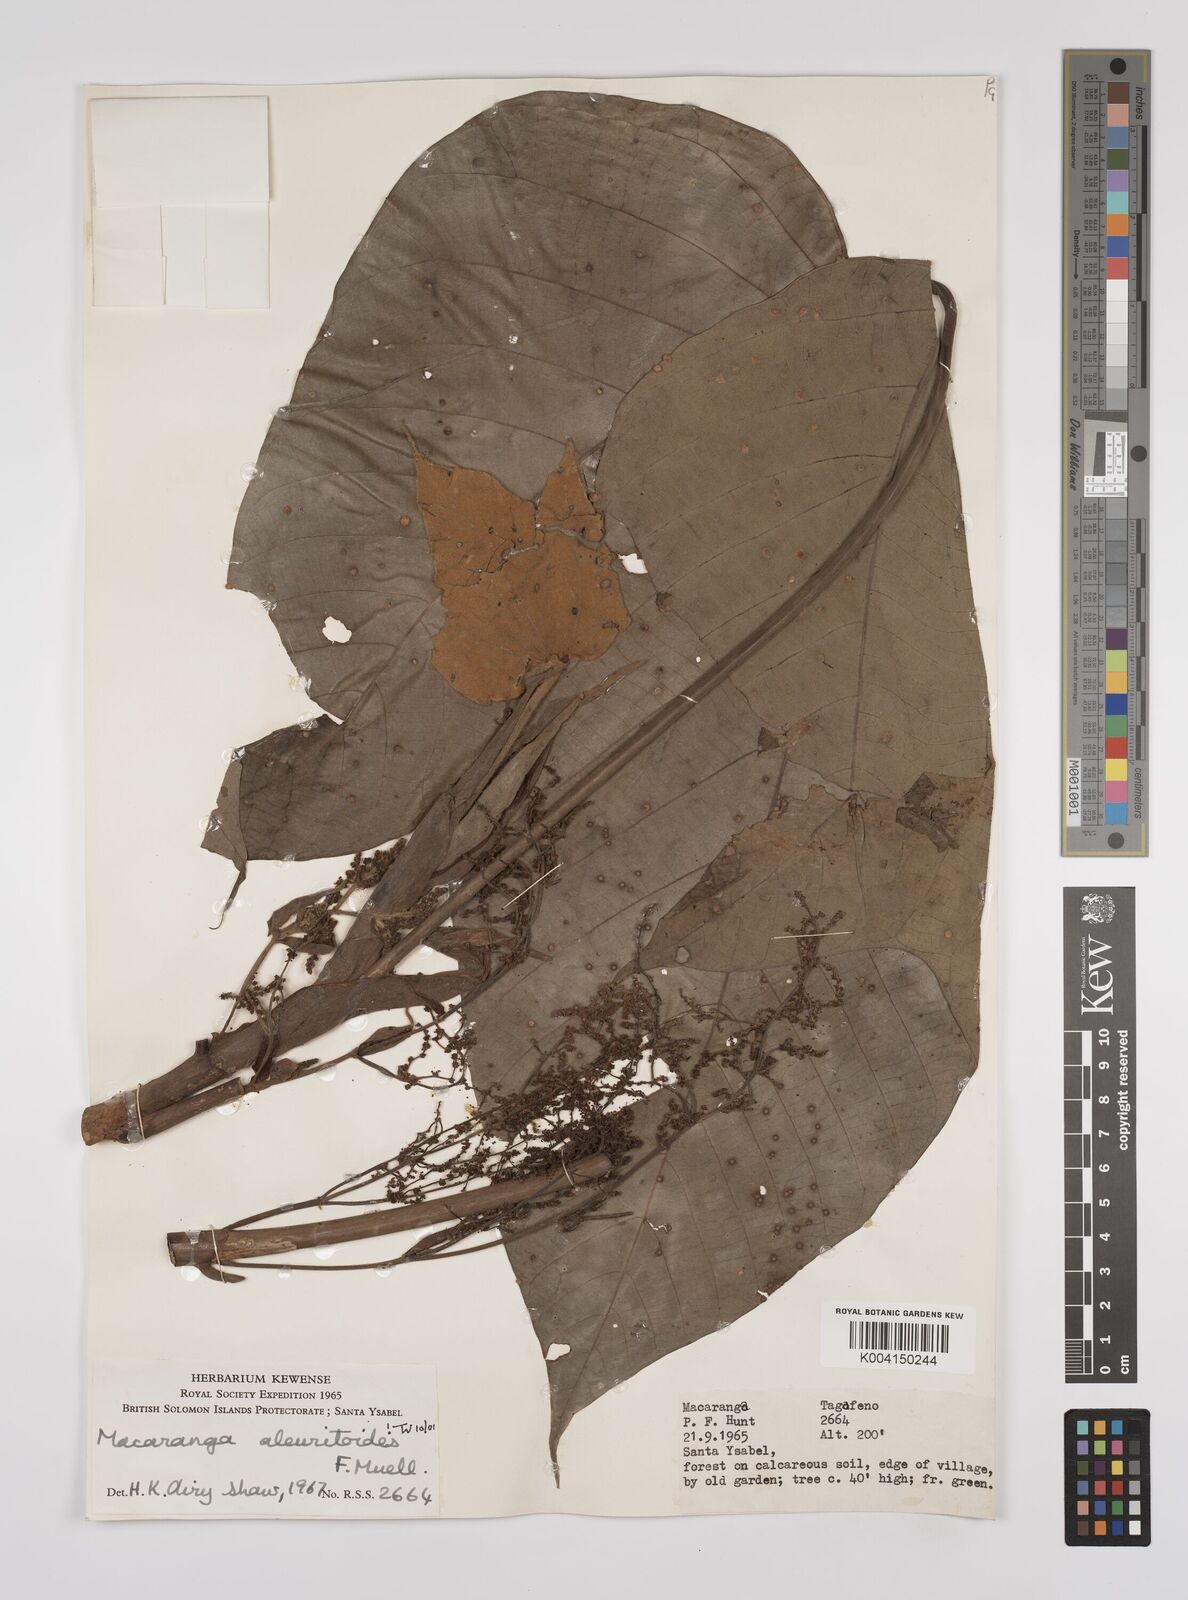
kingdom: Plantae
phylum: Tracheophyta
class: Magnoliopsida
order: Malpighiales
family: Euphorbiaceae
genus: Macaranga
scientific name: Macaranga aleuritoides
